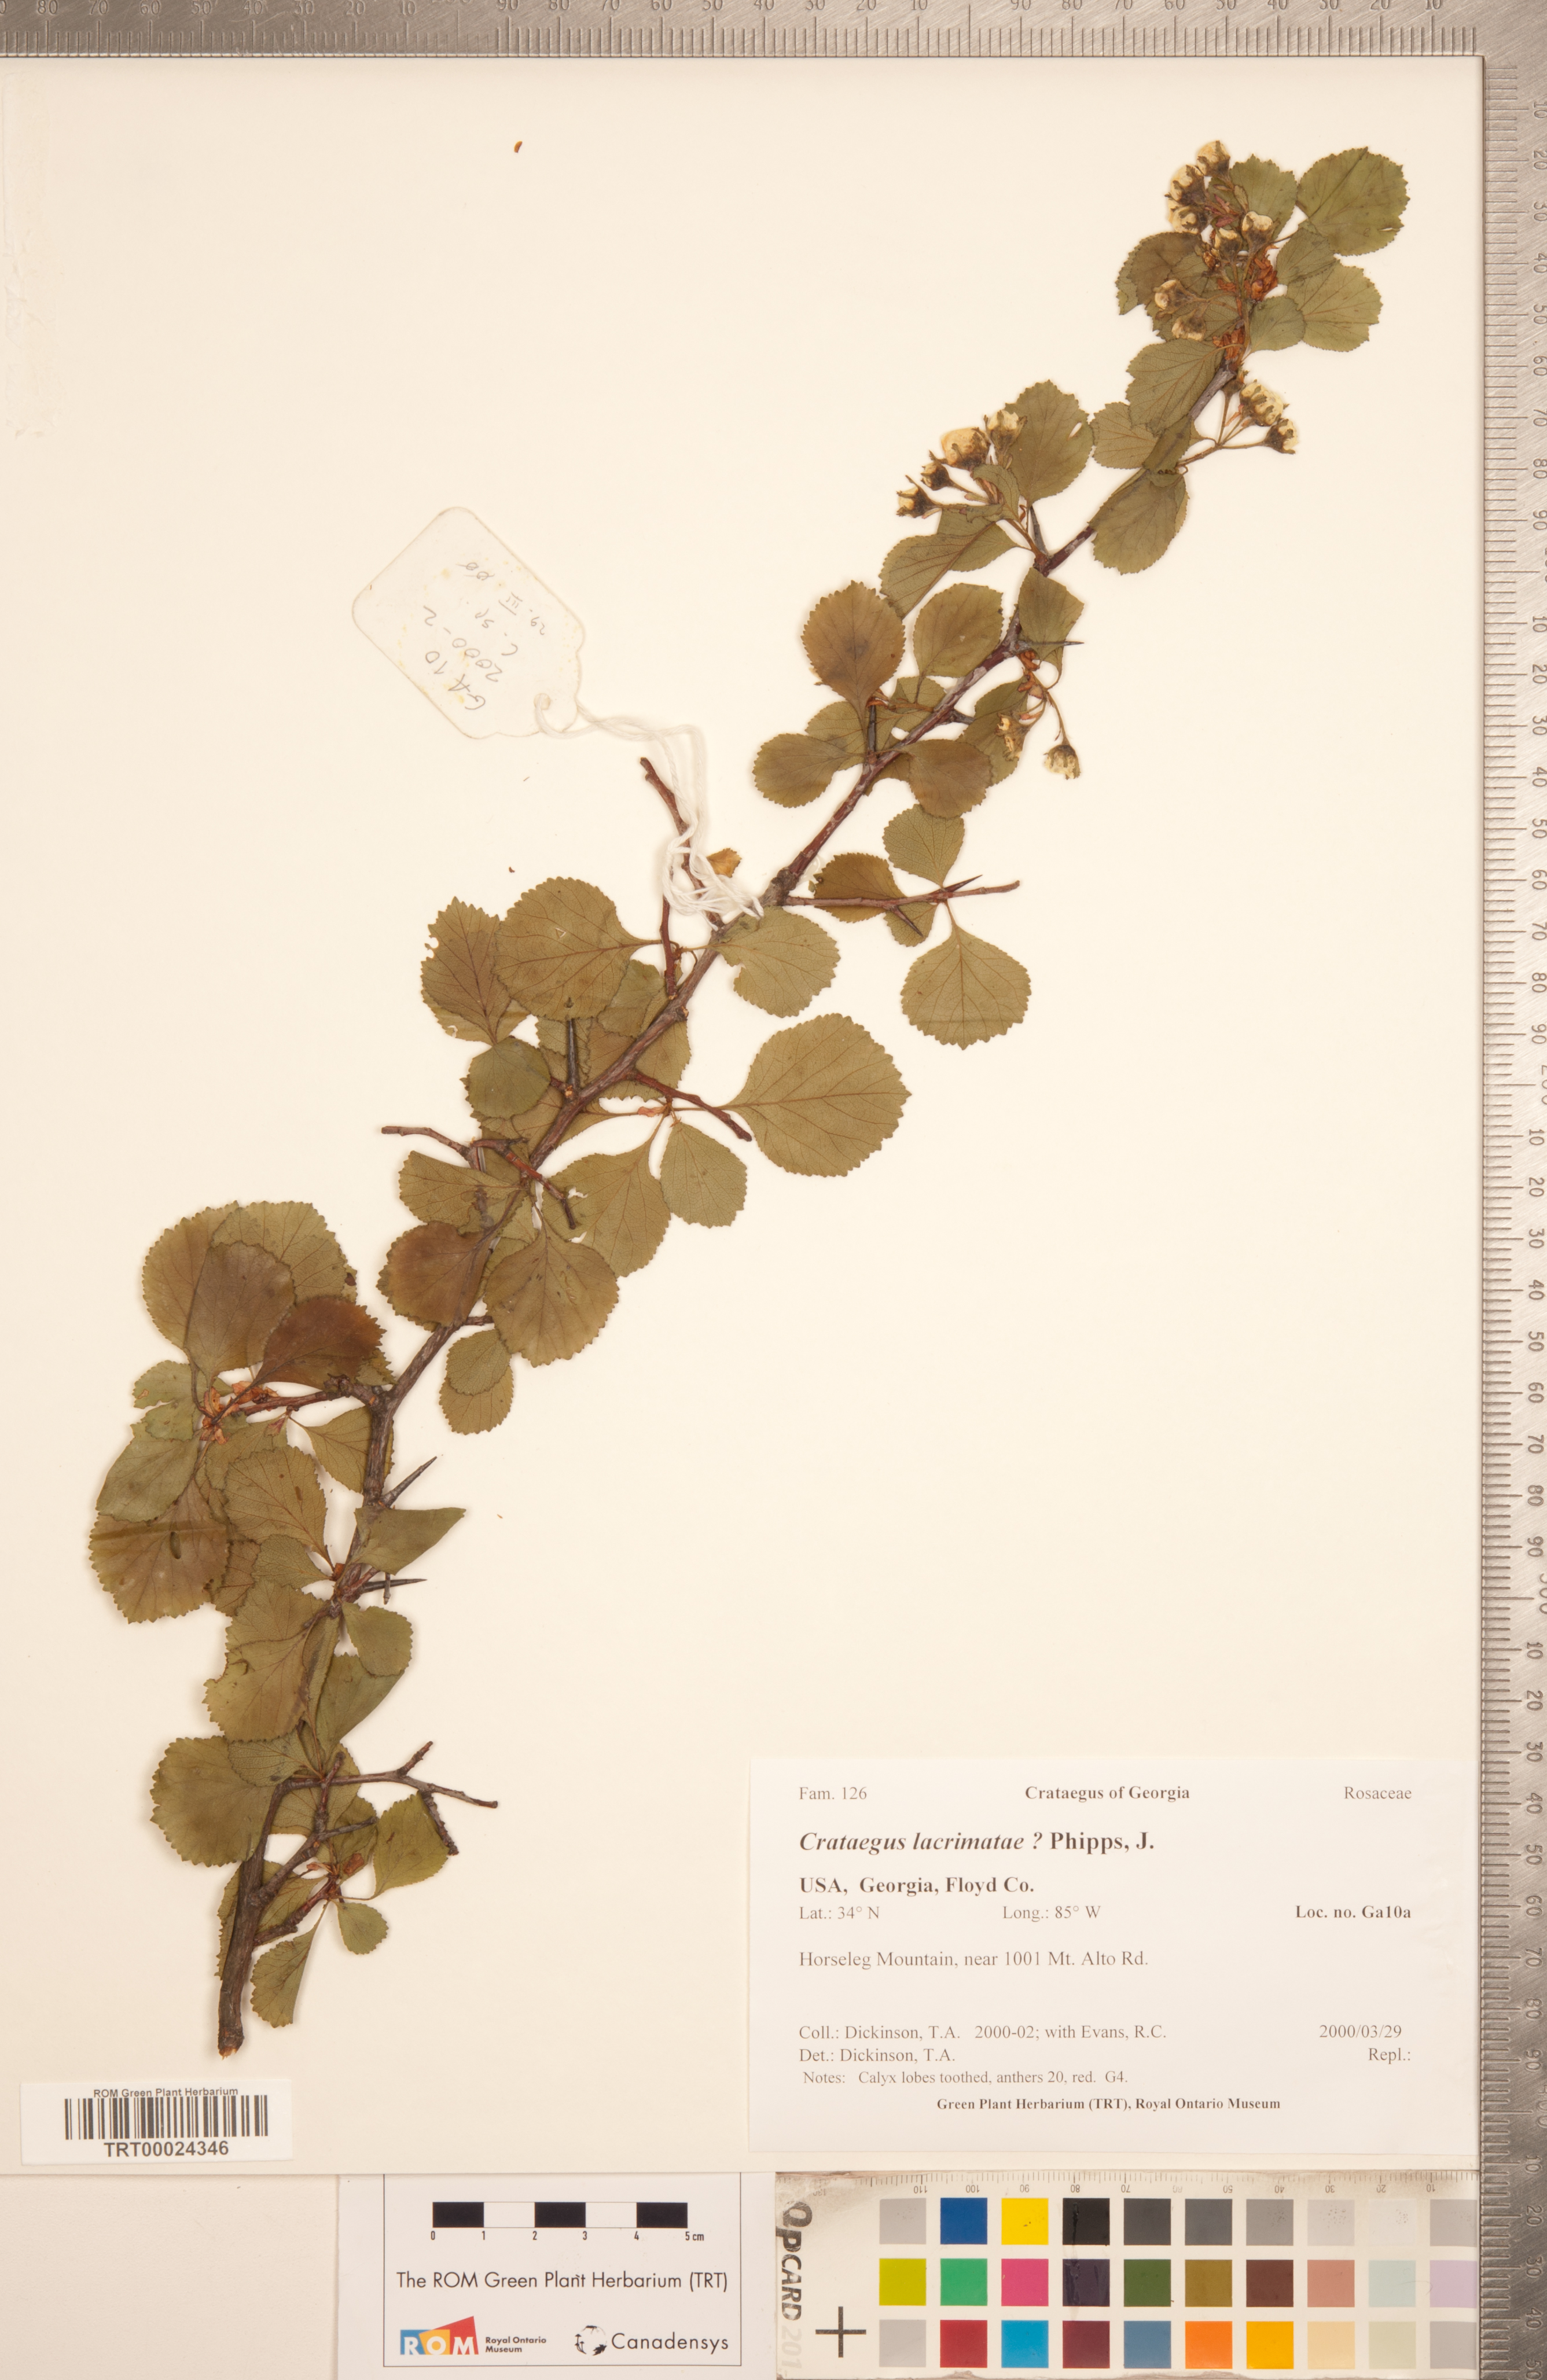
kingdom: Plantae
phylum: Tracheophyta
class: Magnoliopsida
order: Rosales
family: Rosaceae
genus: Crataegus
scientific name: Crataegus lacrimata
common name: Weeping hawthorn
